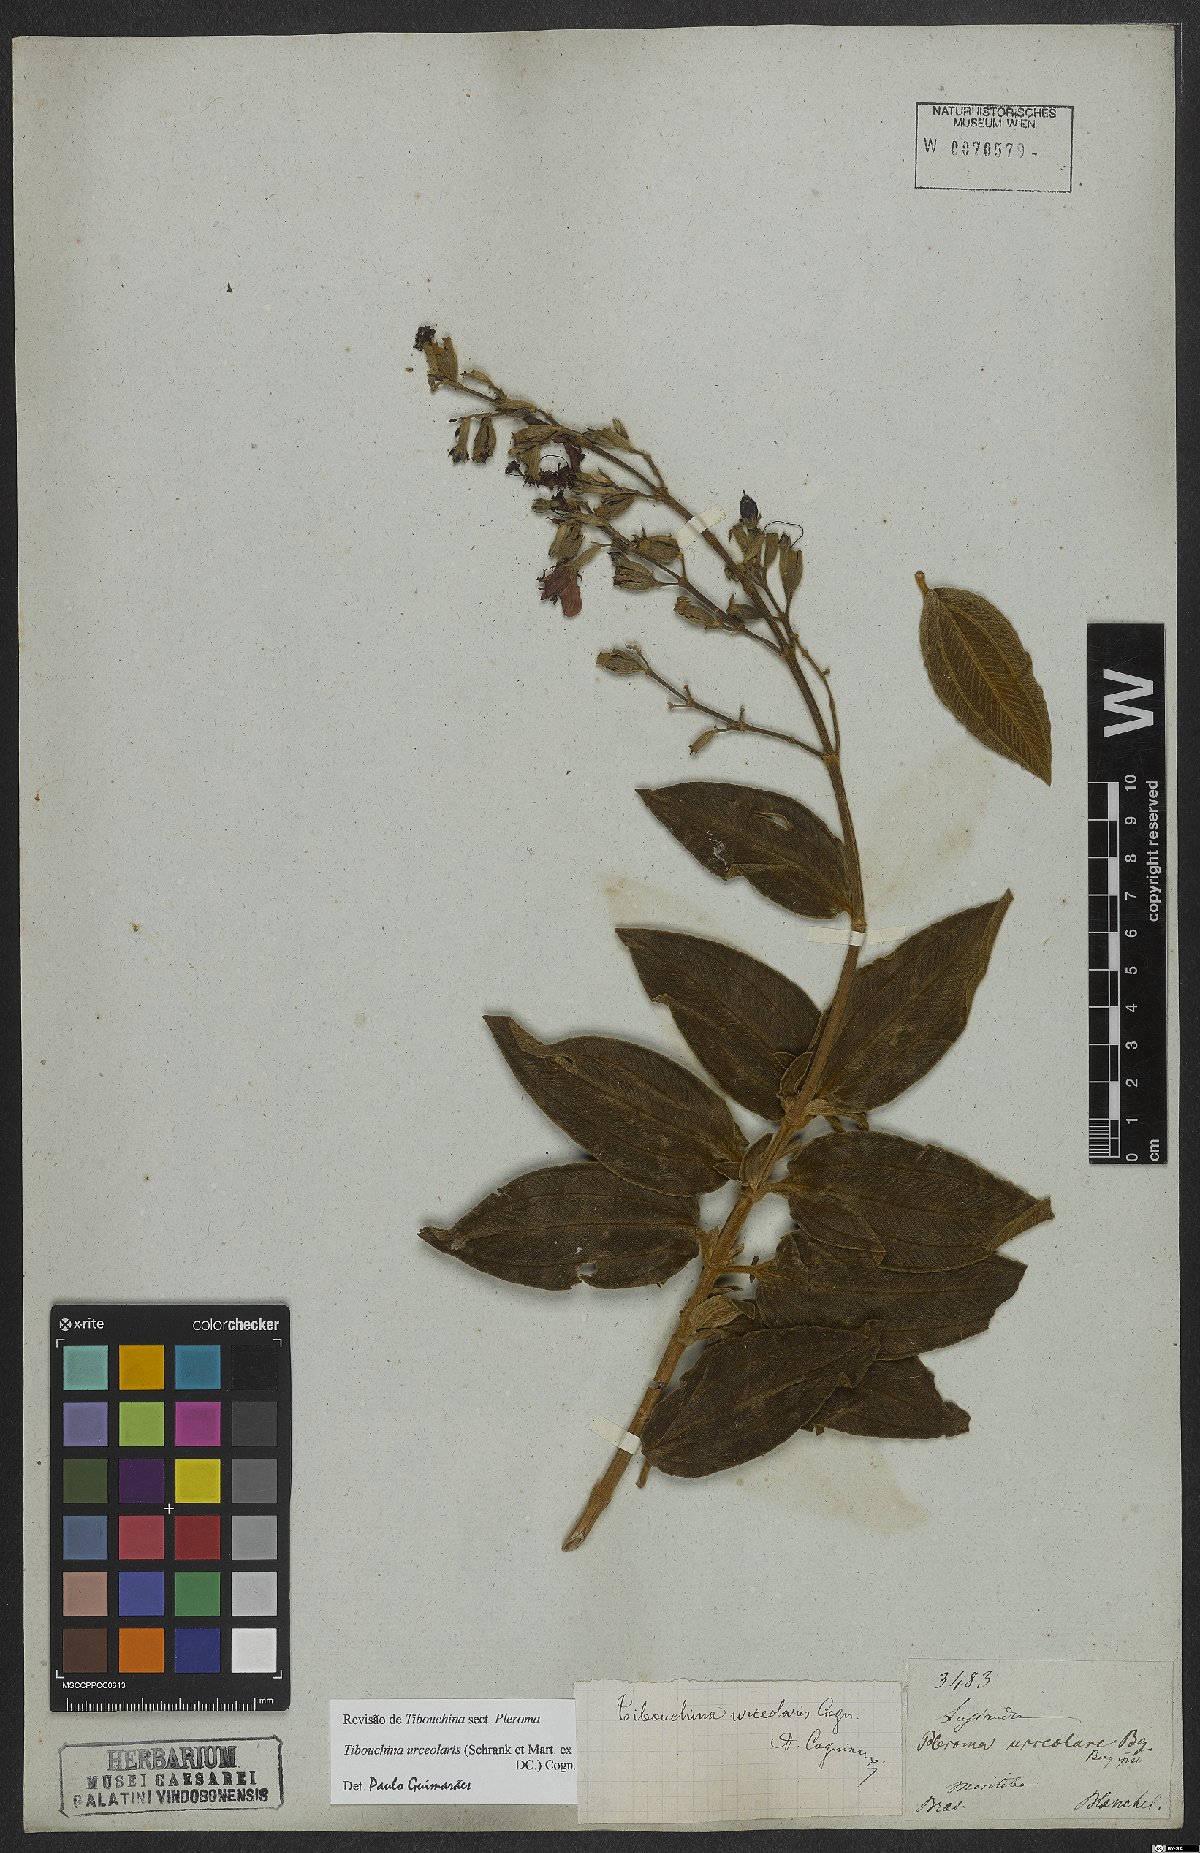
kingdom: Plantae
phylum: Tracheophyta
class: Magnoliopsida
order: Myrtales
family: Melastomataceae
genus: Pleroma
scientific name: Pleroma urceolare
